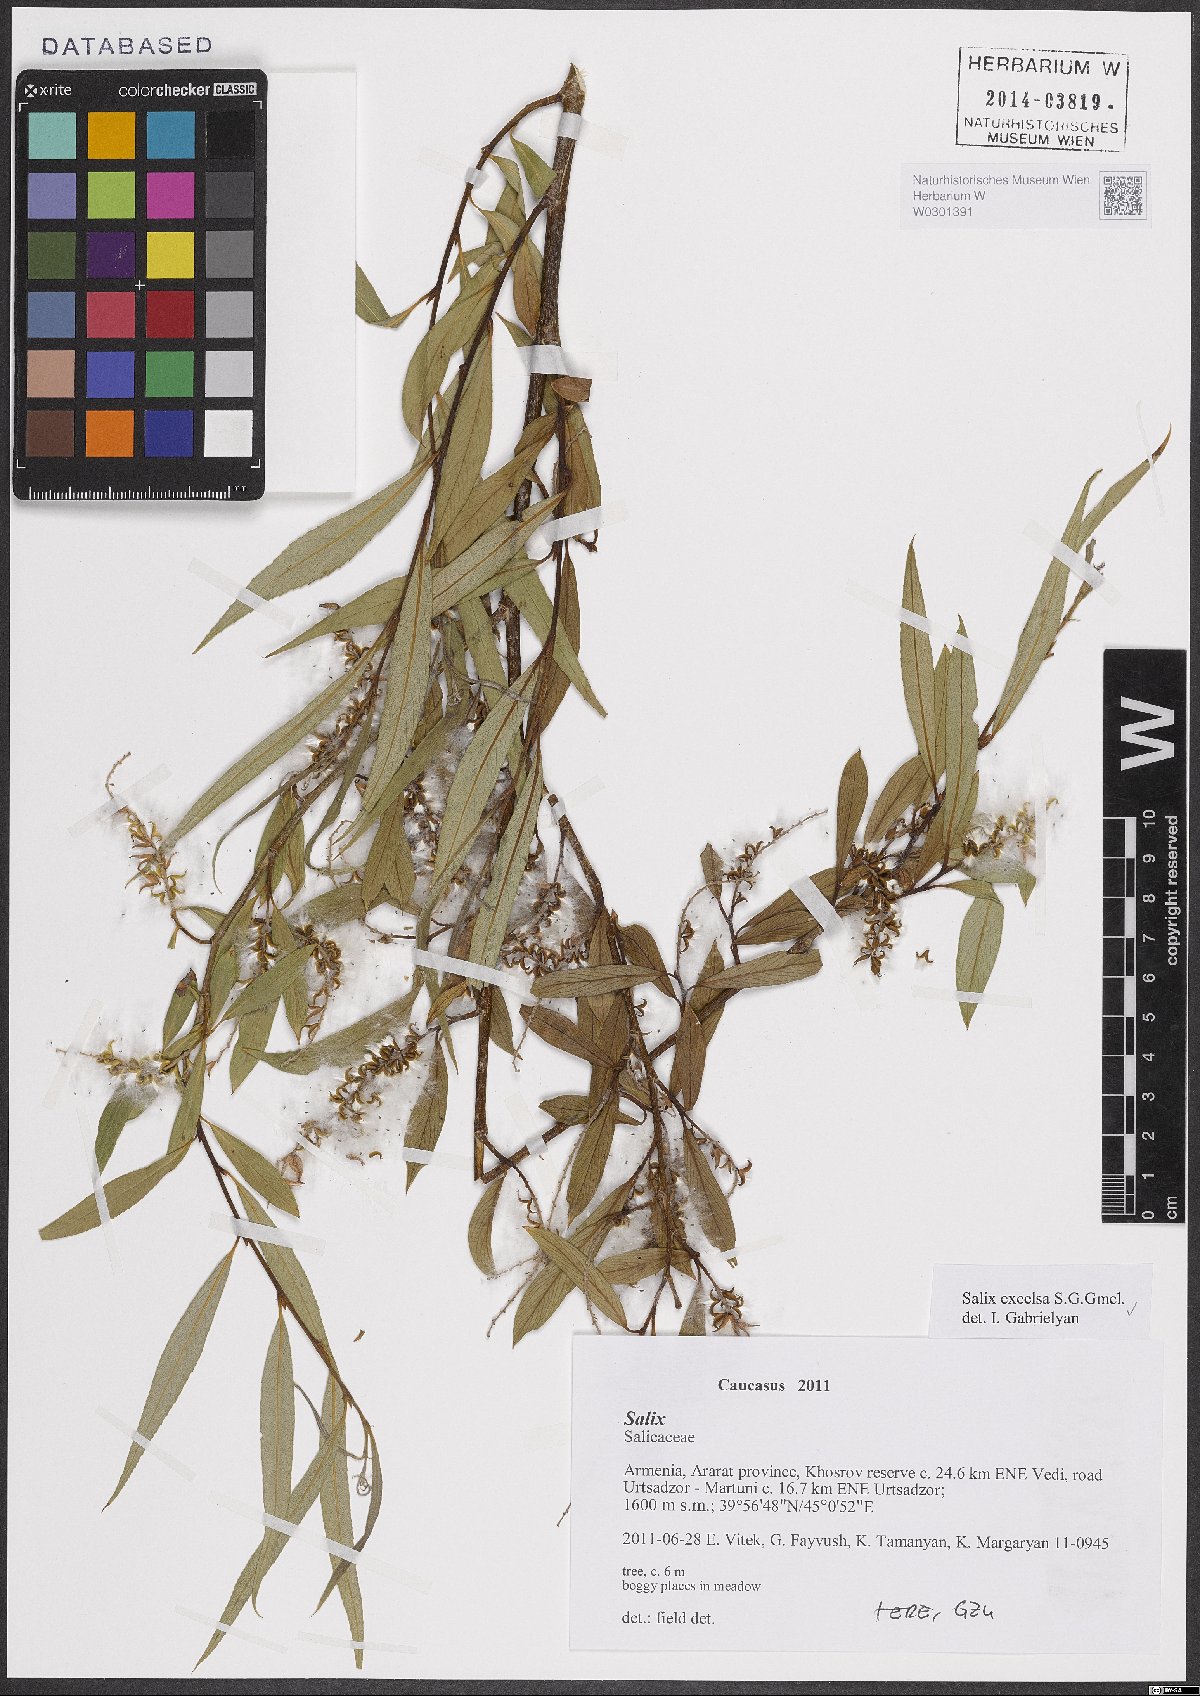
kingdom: Plantae
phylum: Tracheophyta
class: Magnoliopsida
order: Malpighiales
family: Salicaceae
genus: Salix
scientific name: Salix excelsa
